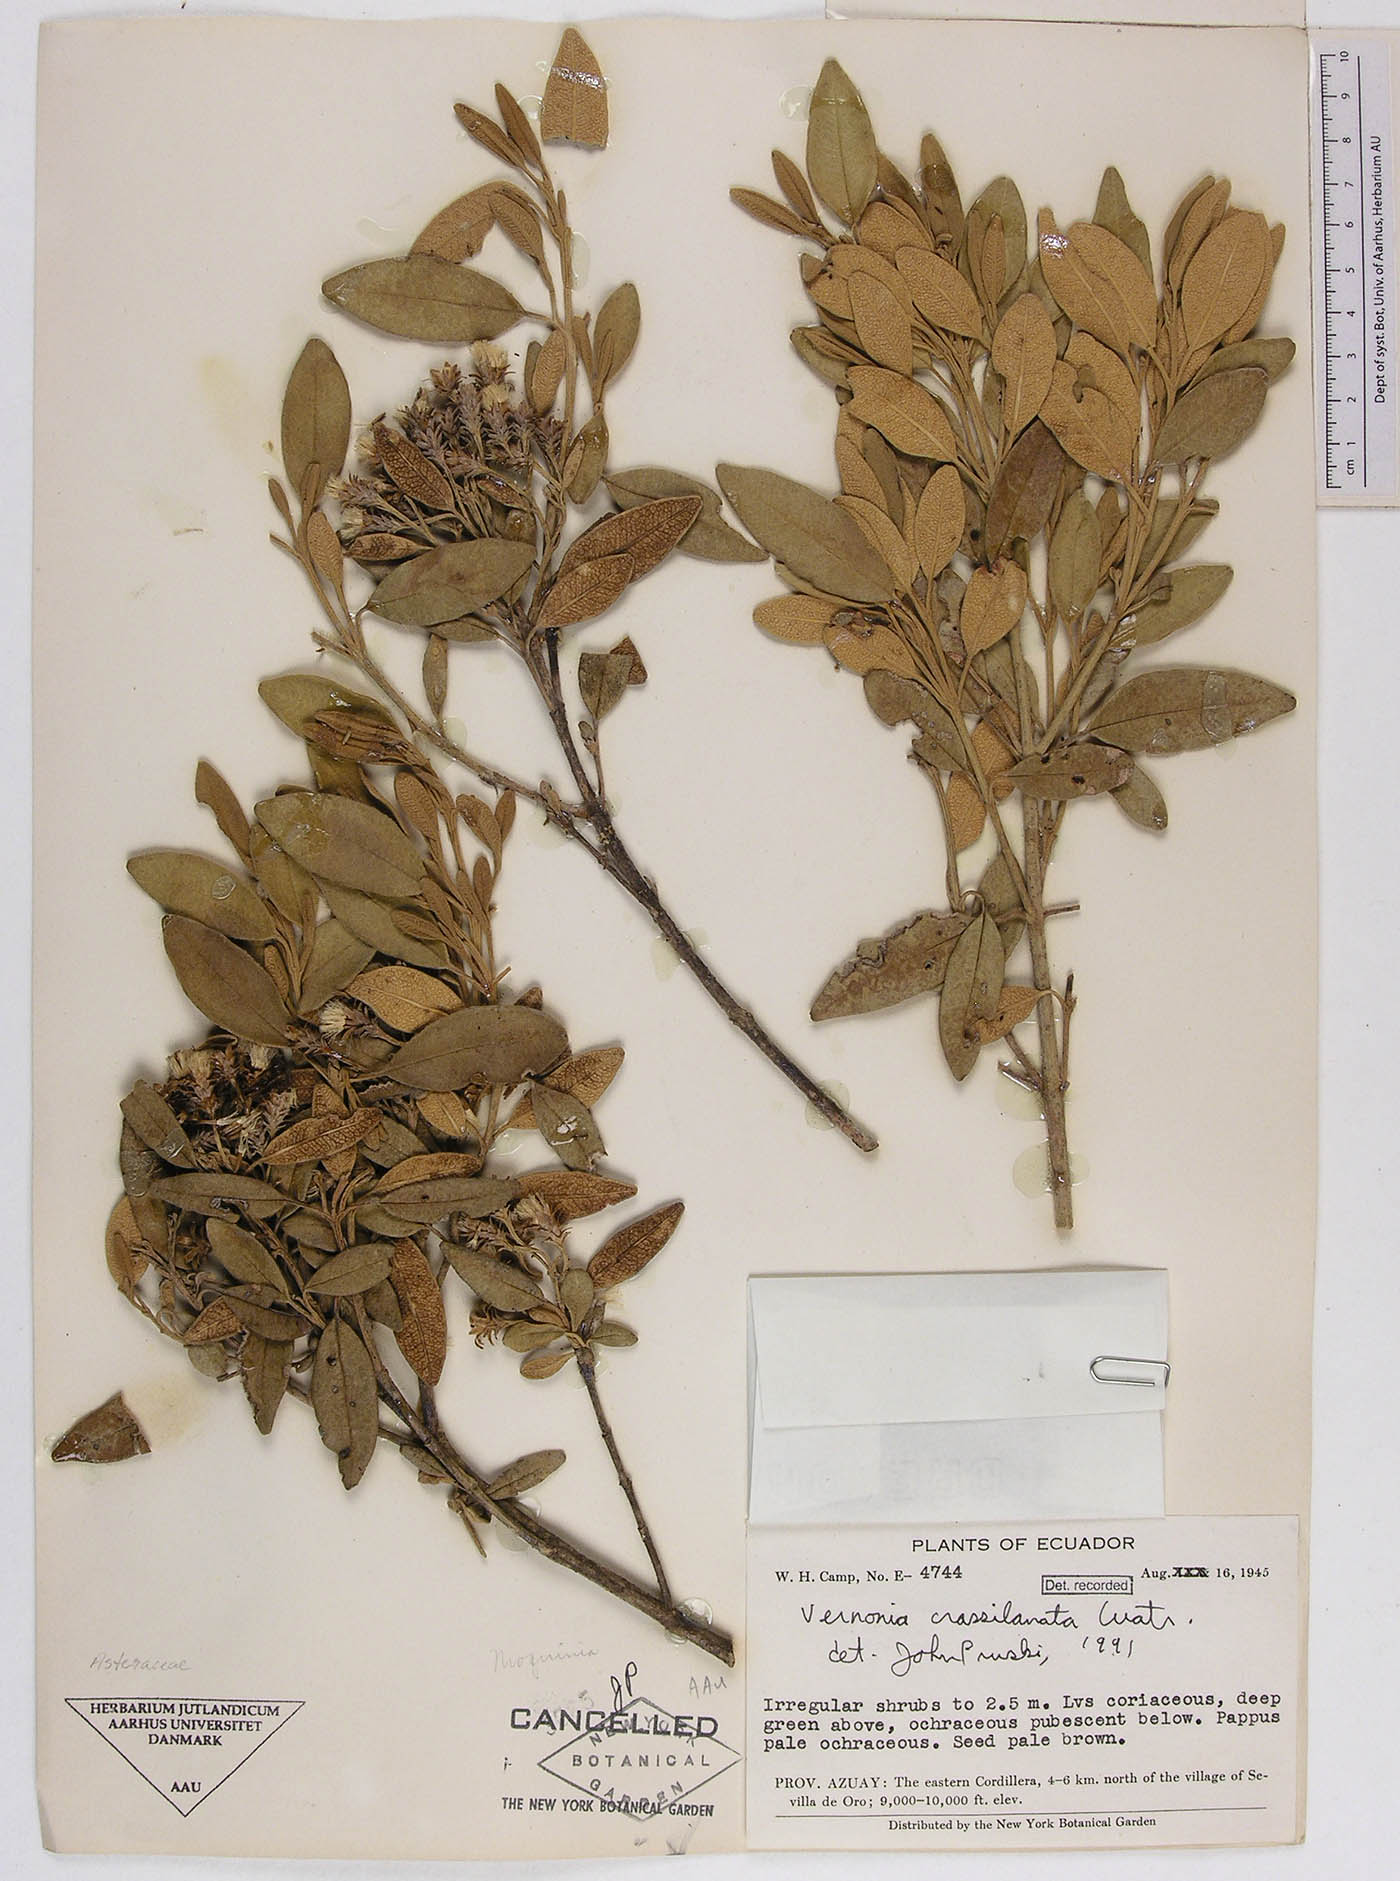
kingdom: Plantae
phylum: Tracheophyta
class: Magnoliopsida
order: Asterales
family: Asteraceae
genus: Joseanthus
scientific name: Joseanthus cuatrecasasii
